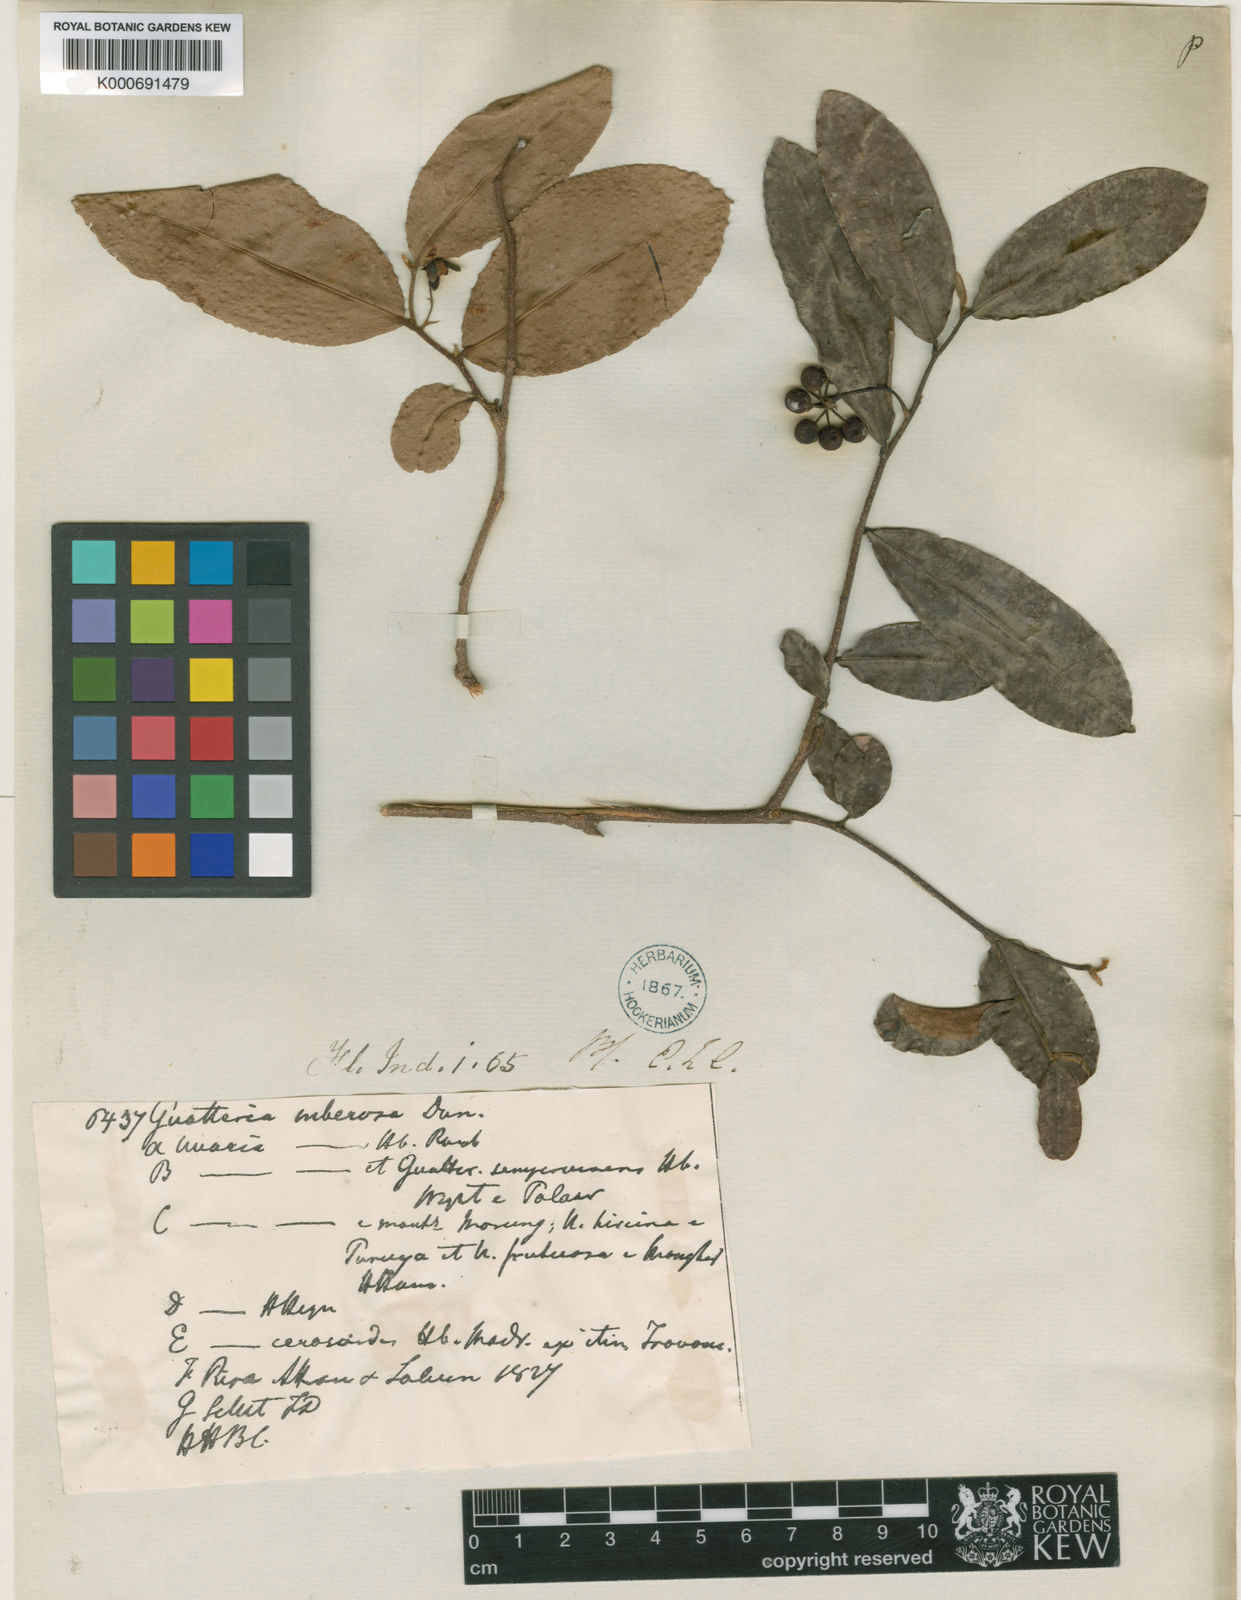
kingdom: Plantae
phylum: Tracheophyta
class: Magnoliopsida
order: Magnoliales
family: Annonaceae
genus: Polyalthia
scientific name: Polyalthia
